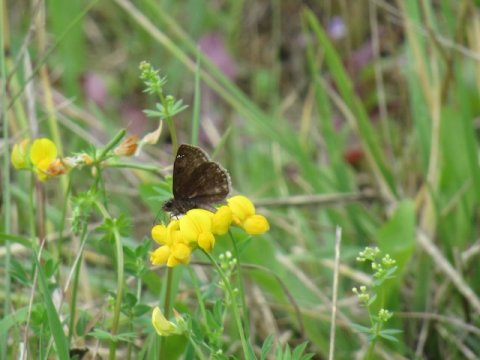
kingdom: Animalia
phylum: Arthropoda
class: Insecta
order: Lepidoptera
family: Hesperiidae
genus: Gesta
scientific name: Gesta
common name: Wild Indigo Duskywing
